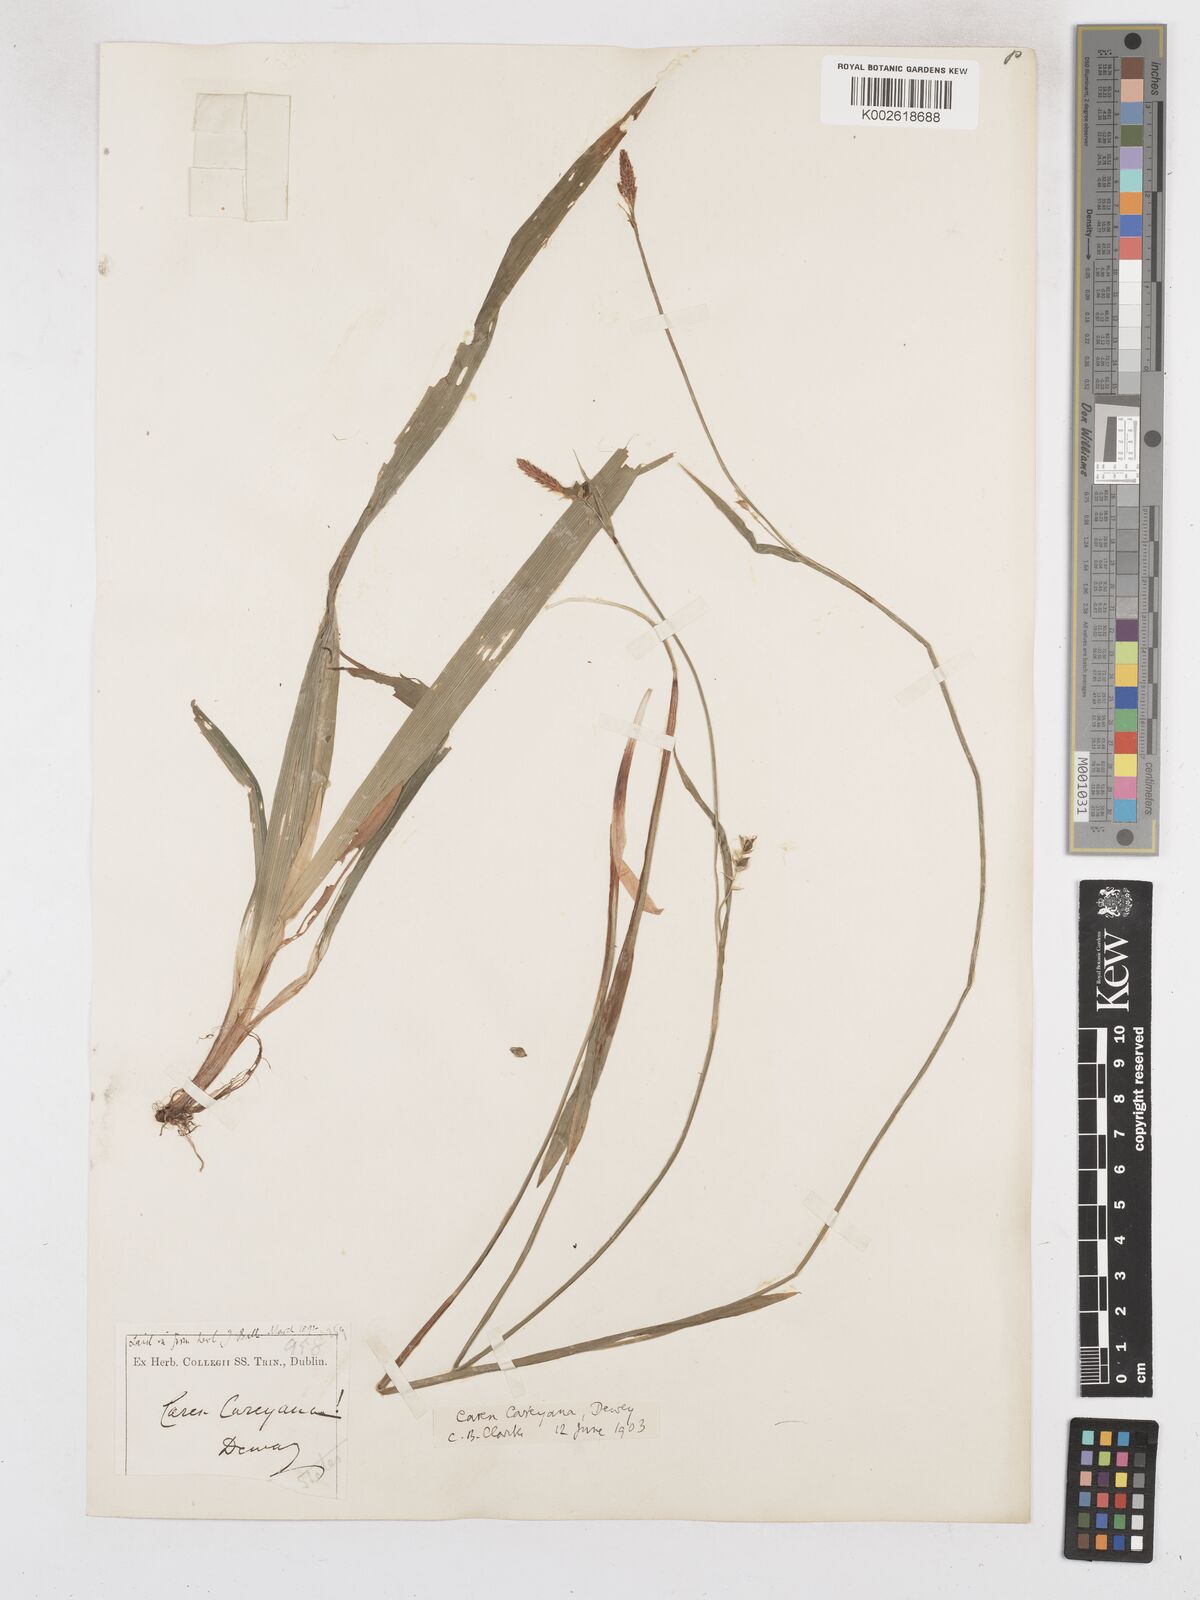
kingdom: Plantae
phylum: Tracheophyta
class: Liliopsida
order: Poales
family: Cyperaceae
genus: Carex
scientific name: Carex careyana
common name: Carey's sedge
